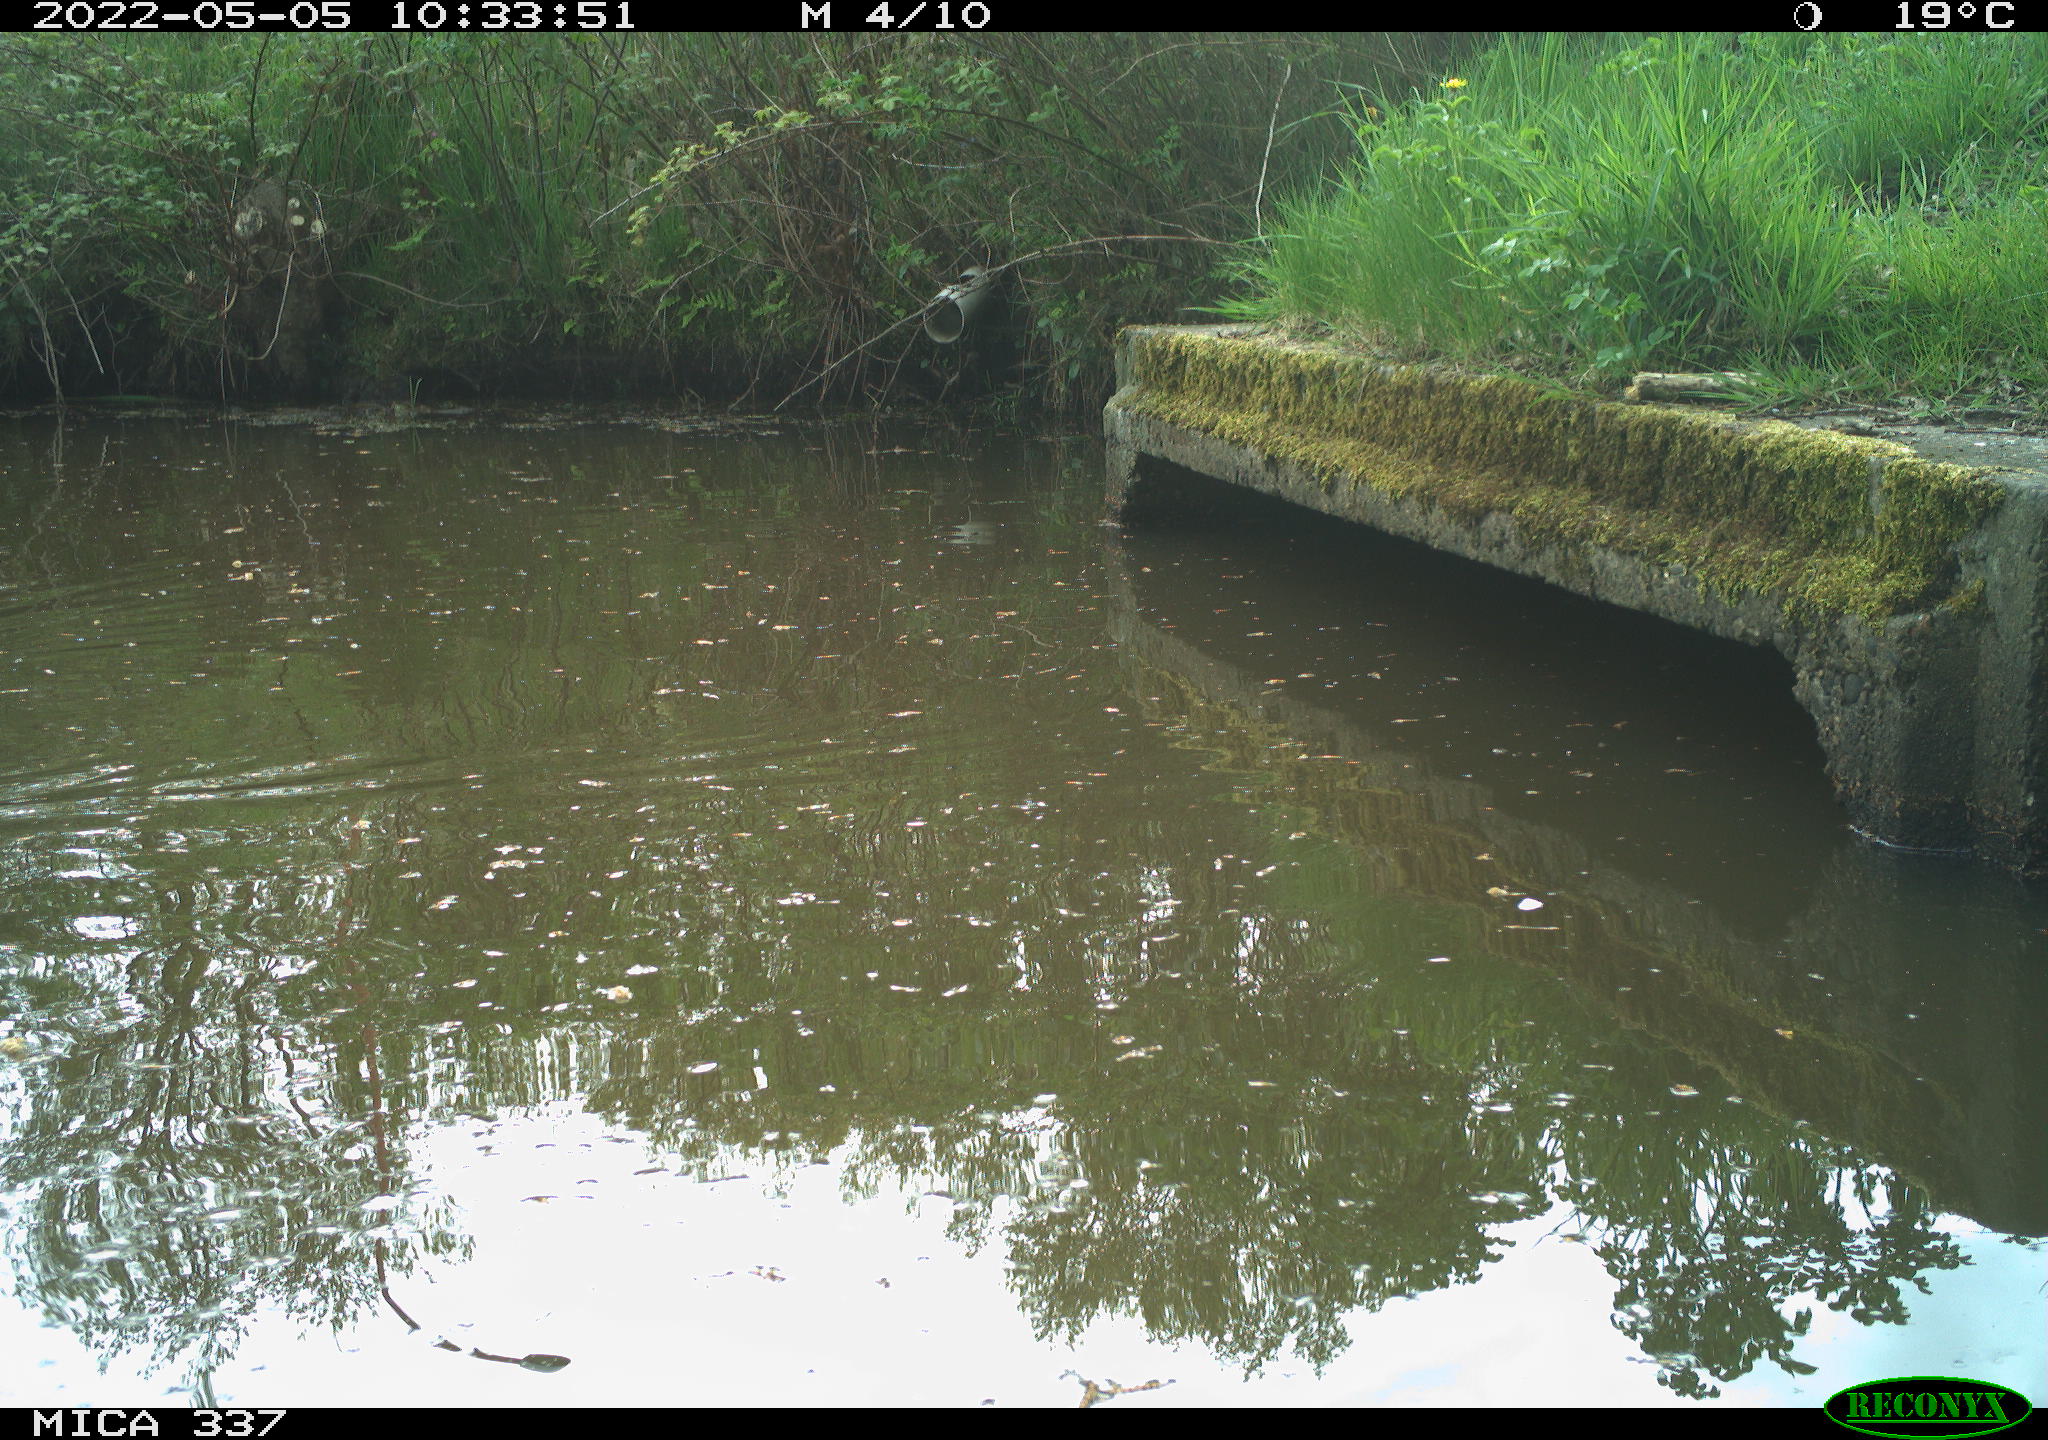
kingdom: Animalia
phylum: Chordata
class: Aves
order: Gruiformes
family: Rallidae
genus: Gallinula
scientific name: Gallinula chloropus
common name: Common moorhen
